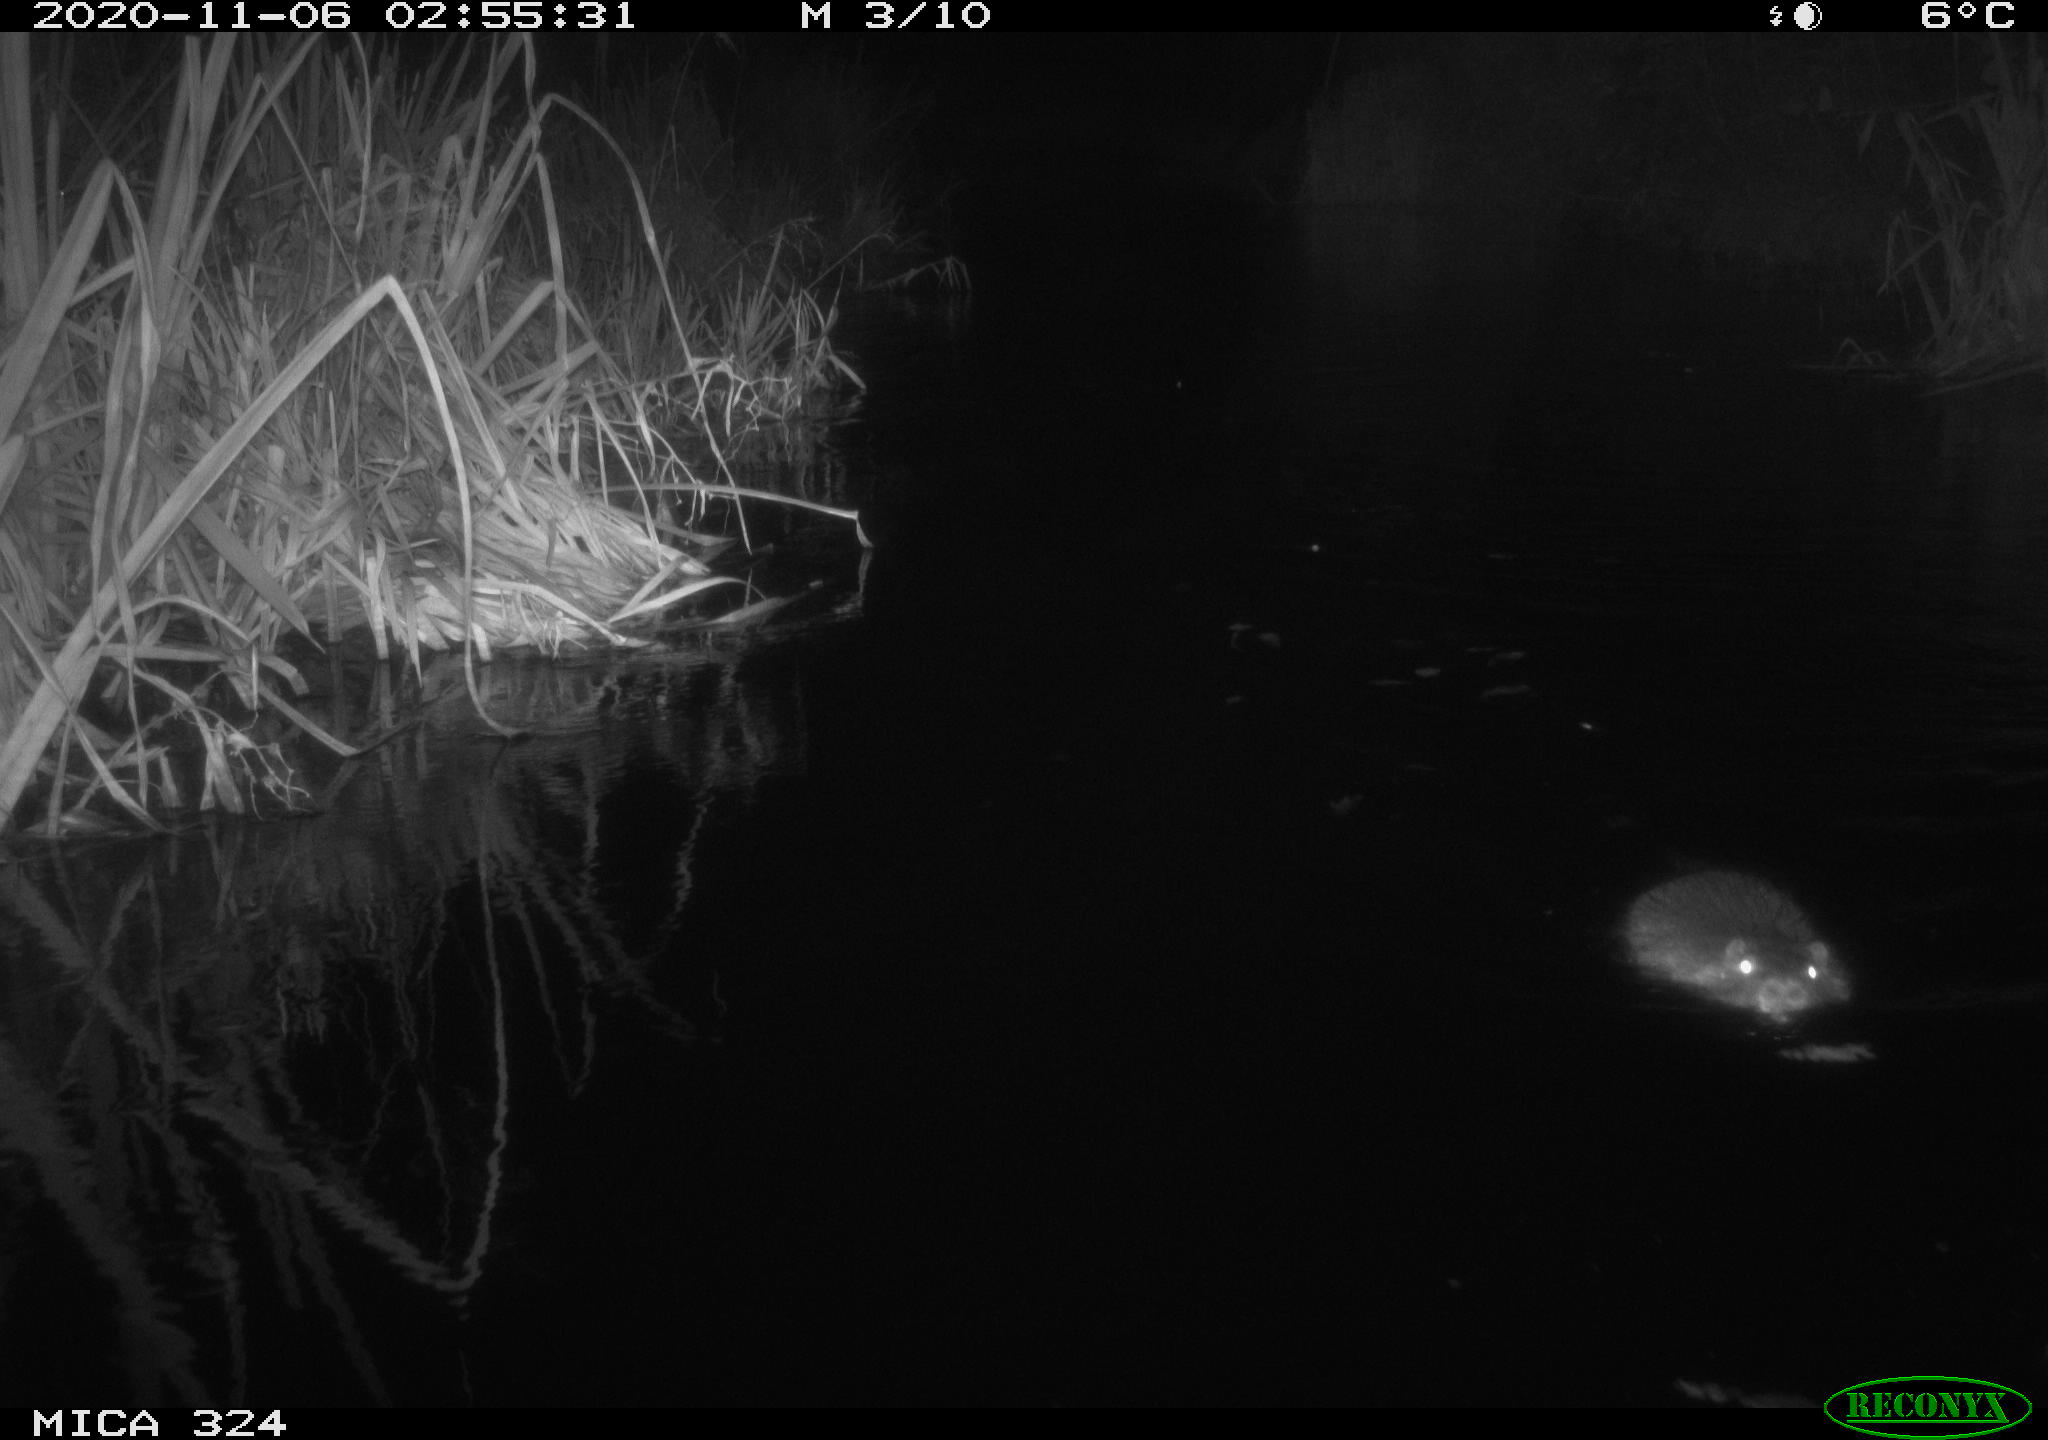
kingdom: Animalia
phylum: Chordata
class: Mammalia
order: Rodentia
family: Myocastoridae
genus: Myocastor
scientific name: Myocastor coypus
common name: Coypu
